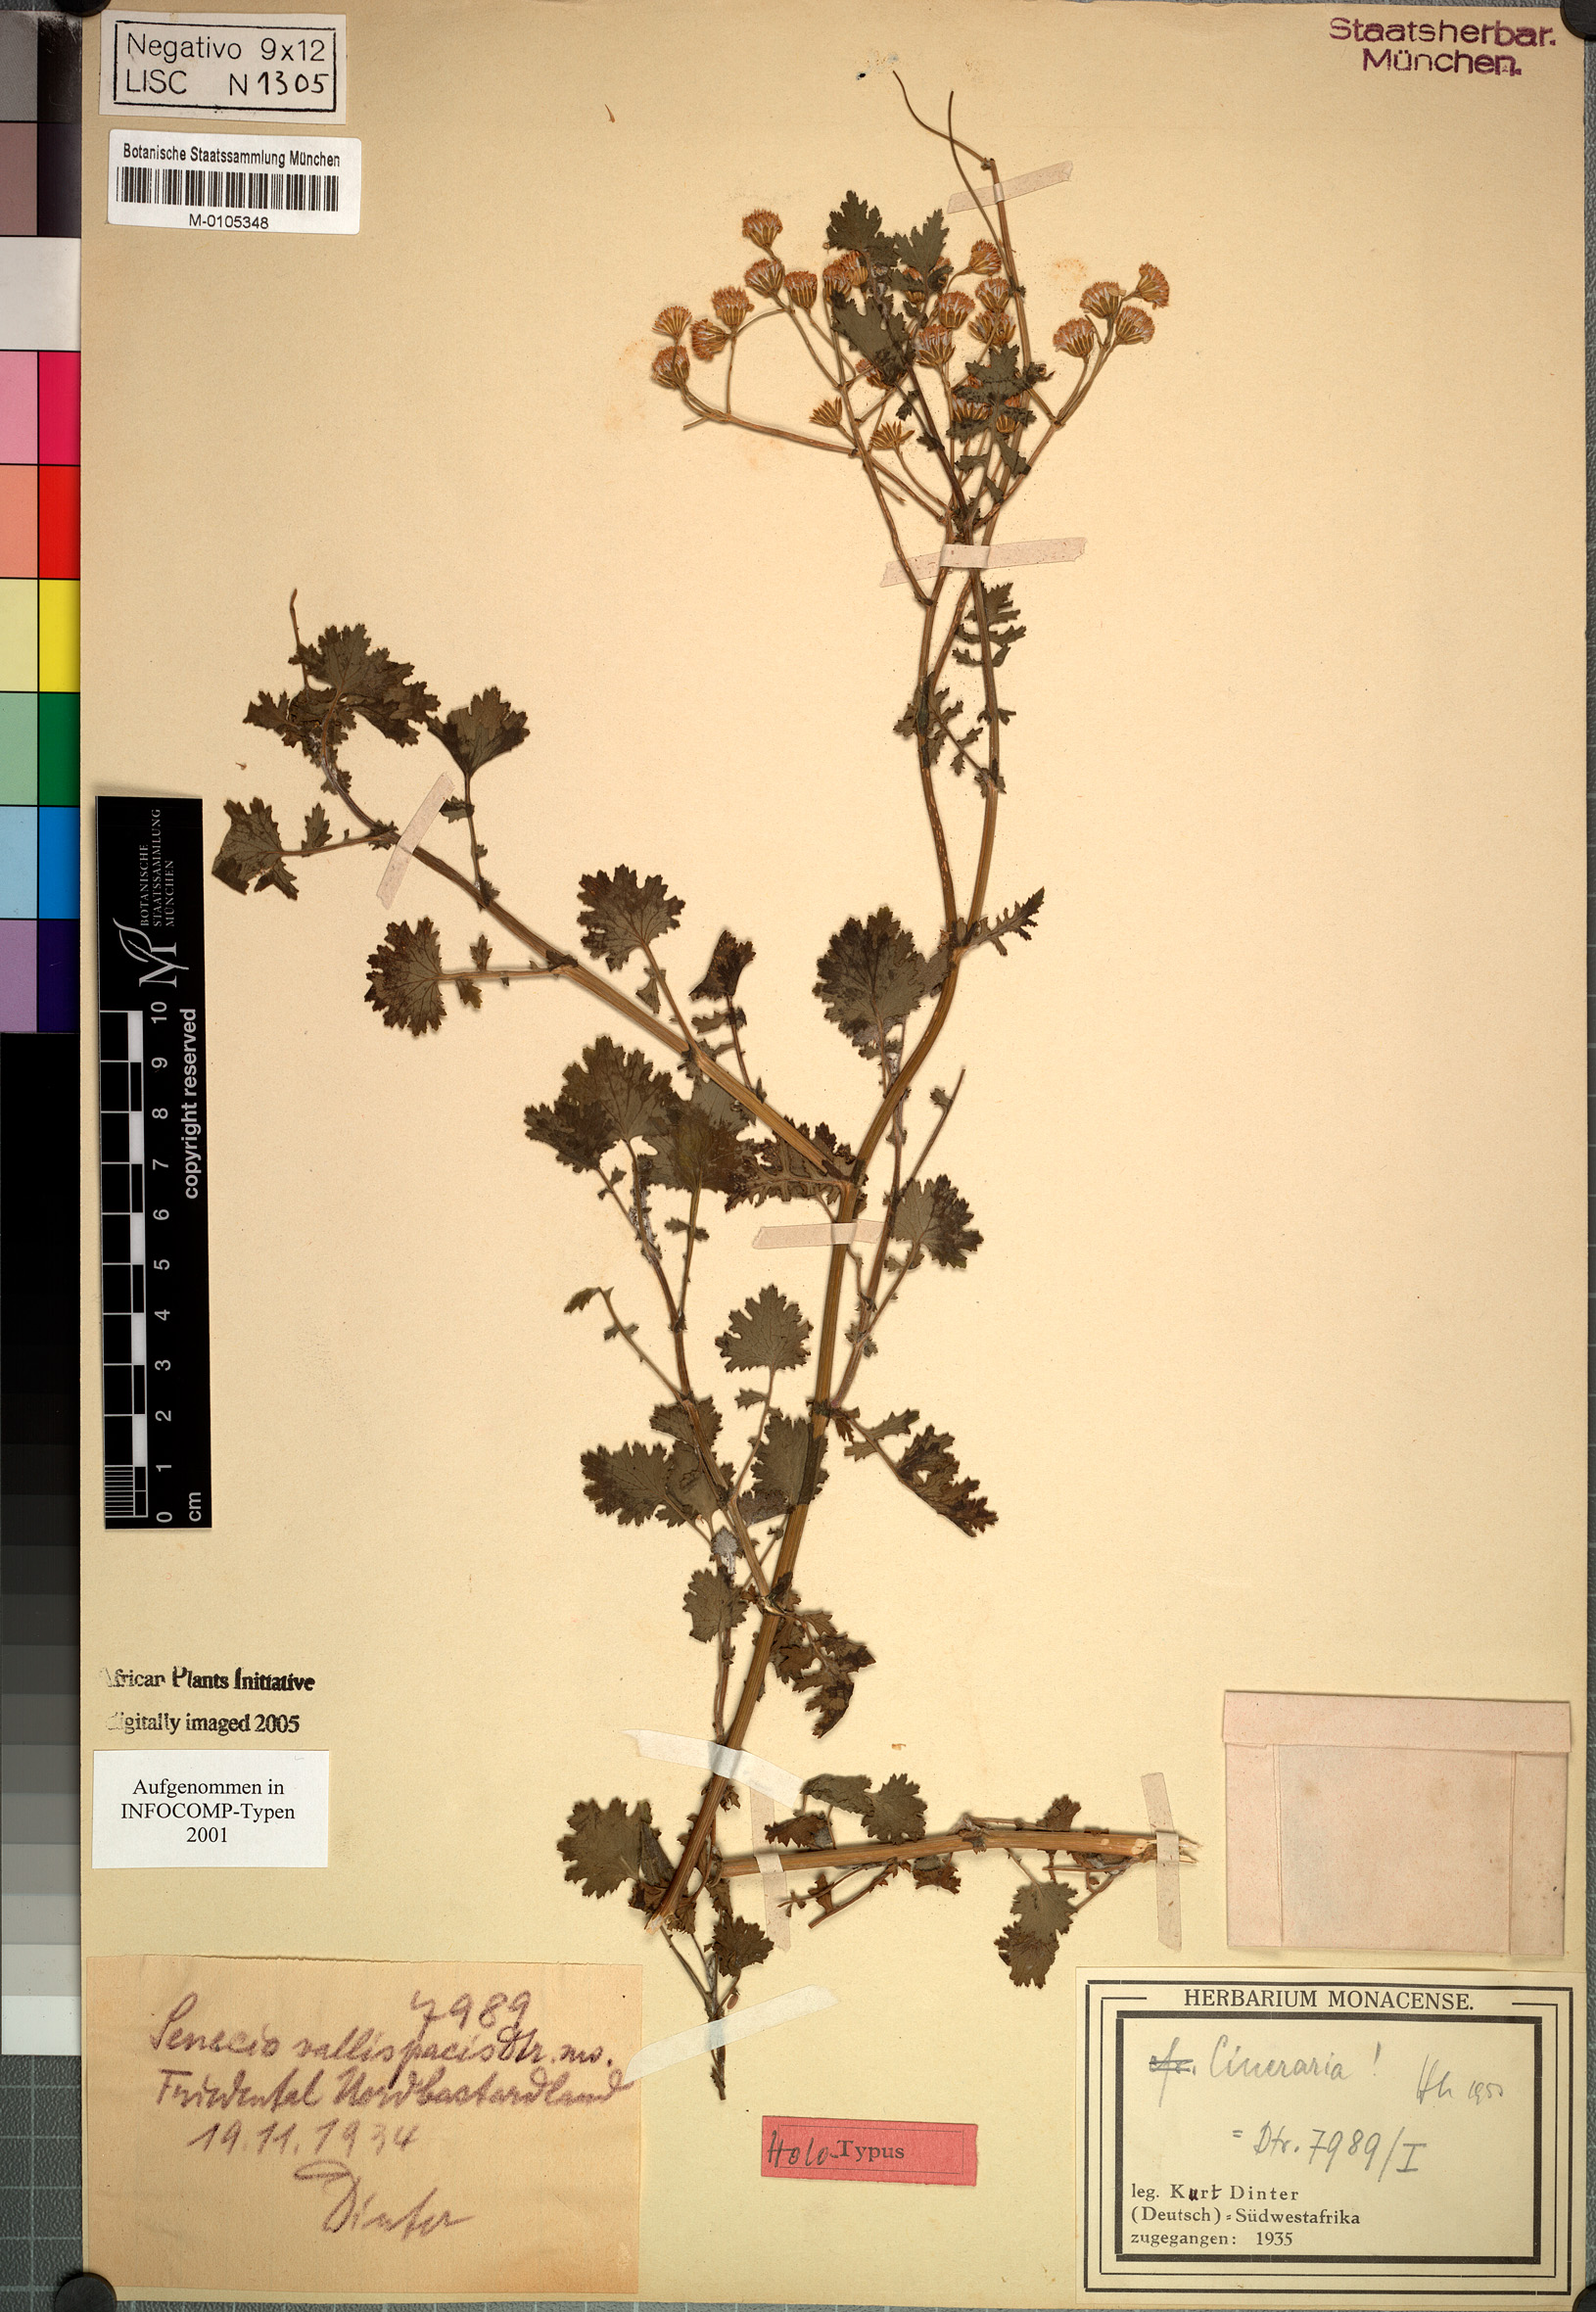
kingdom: Plantae
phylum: Tracheophyta
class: Magnoliopsida
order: Asterales
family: Asteraceae
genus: Cineraria
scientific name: Cineraria vallis-pacis
